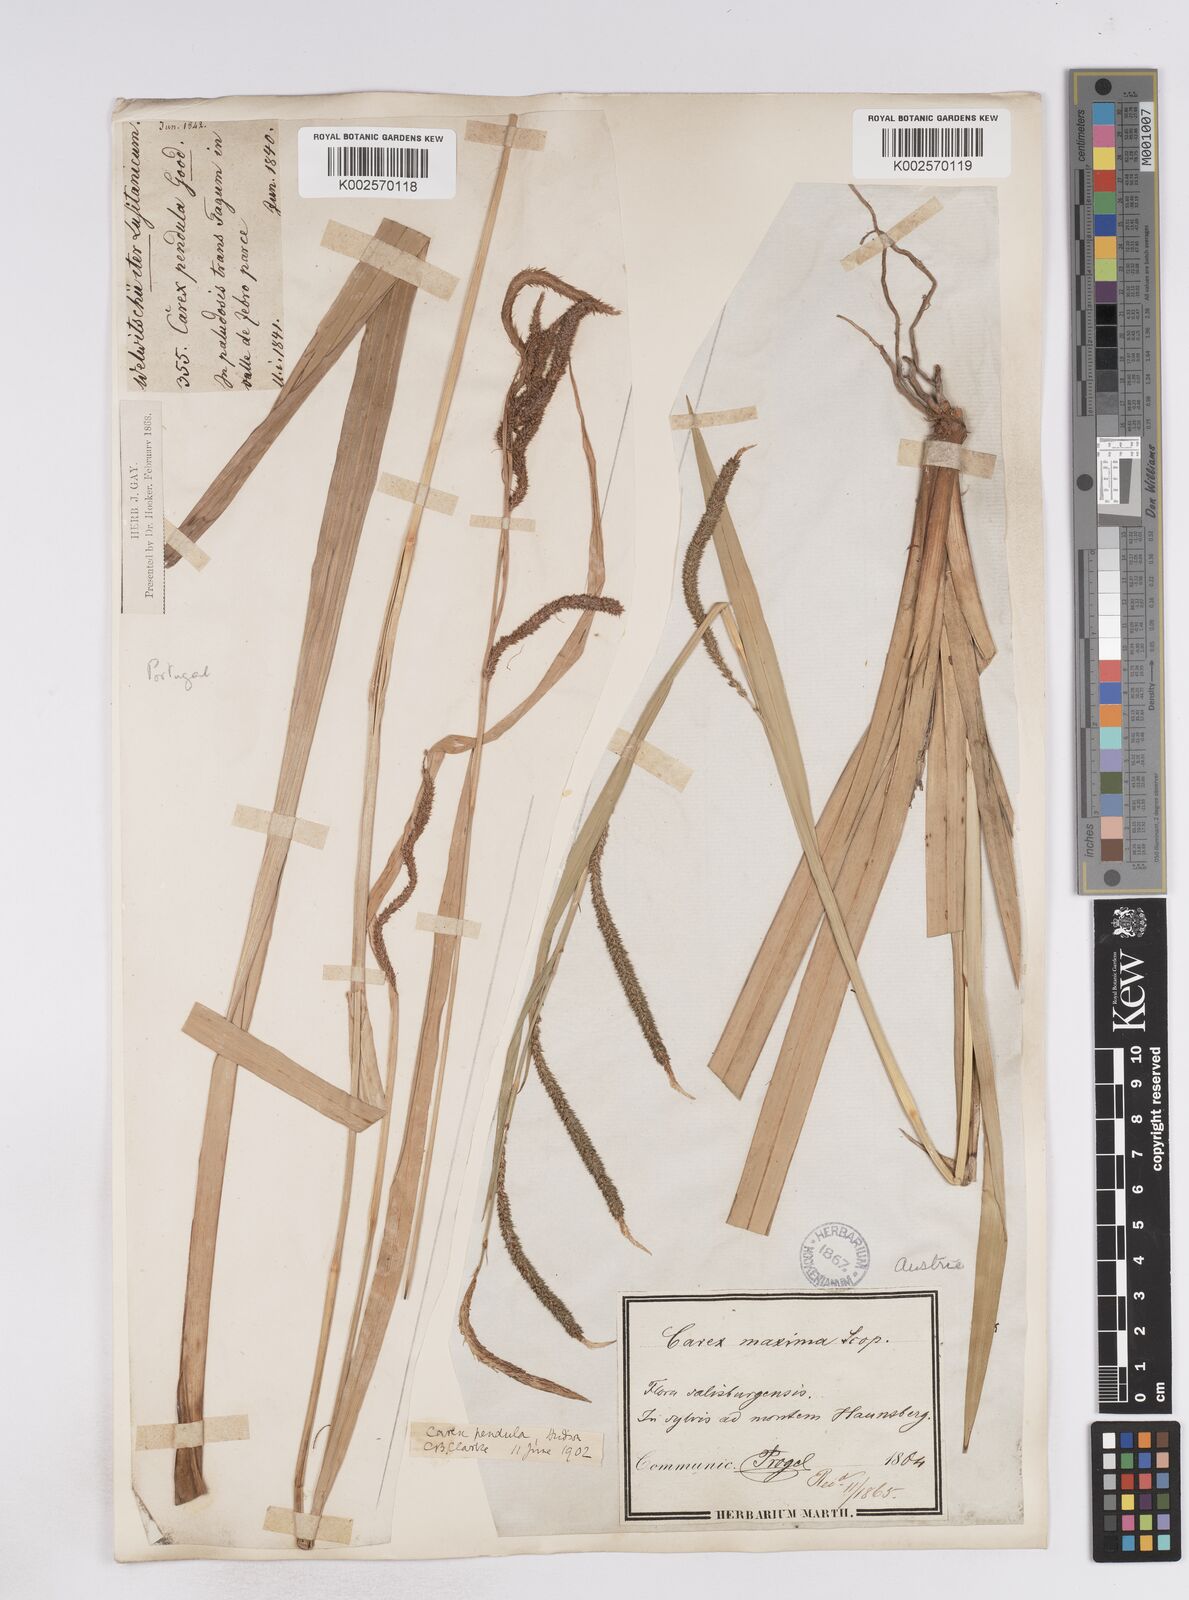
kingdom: Plantae
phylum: Tracheophyta
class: Liliopsida
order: Poales
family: Cyperaceae
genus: Carex
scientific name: Carex pendula
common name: Pendulous sedge
